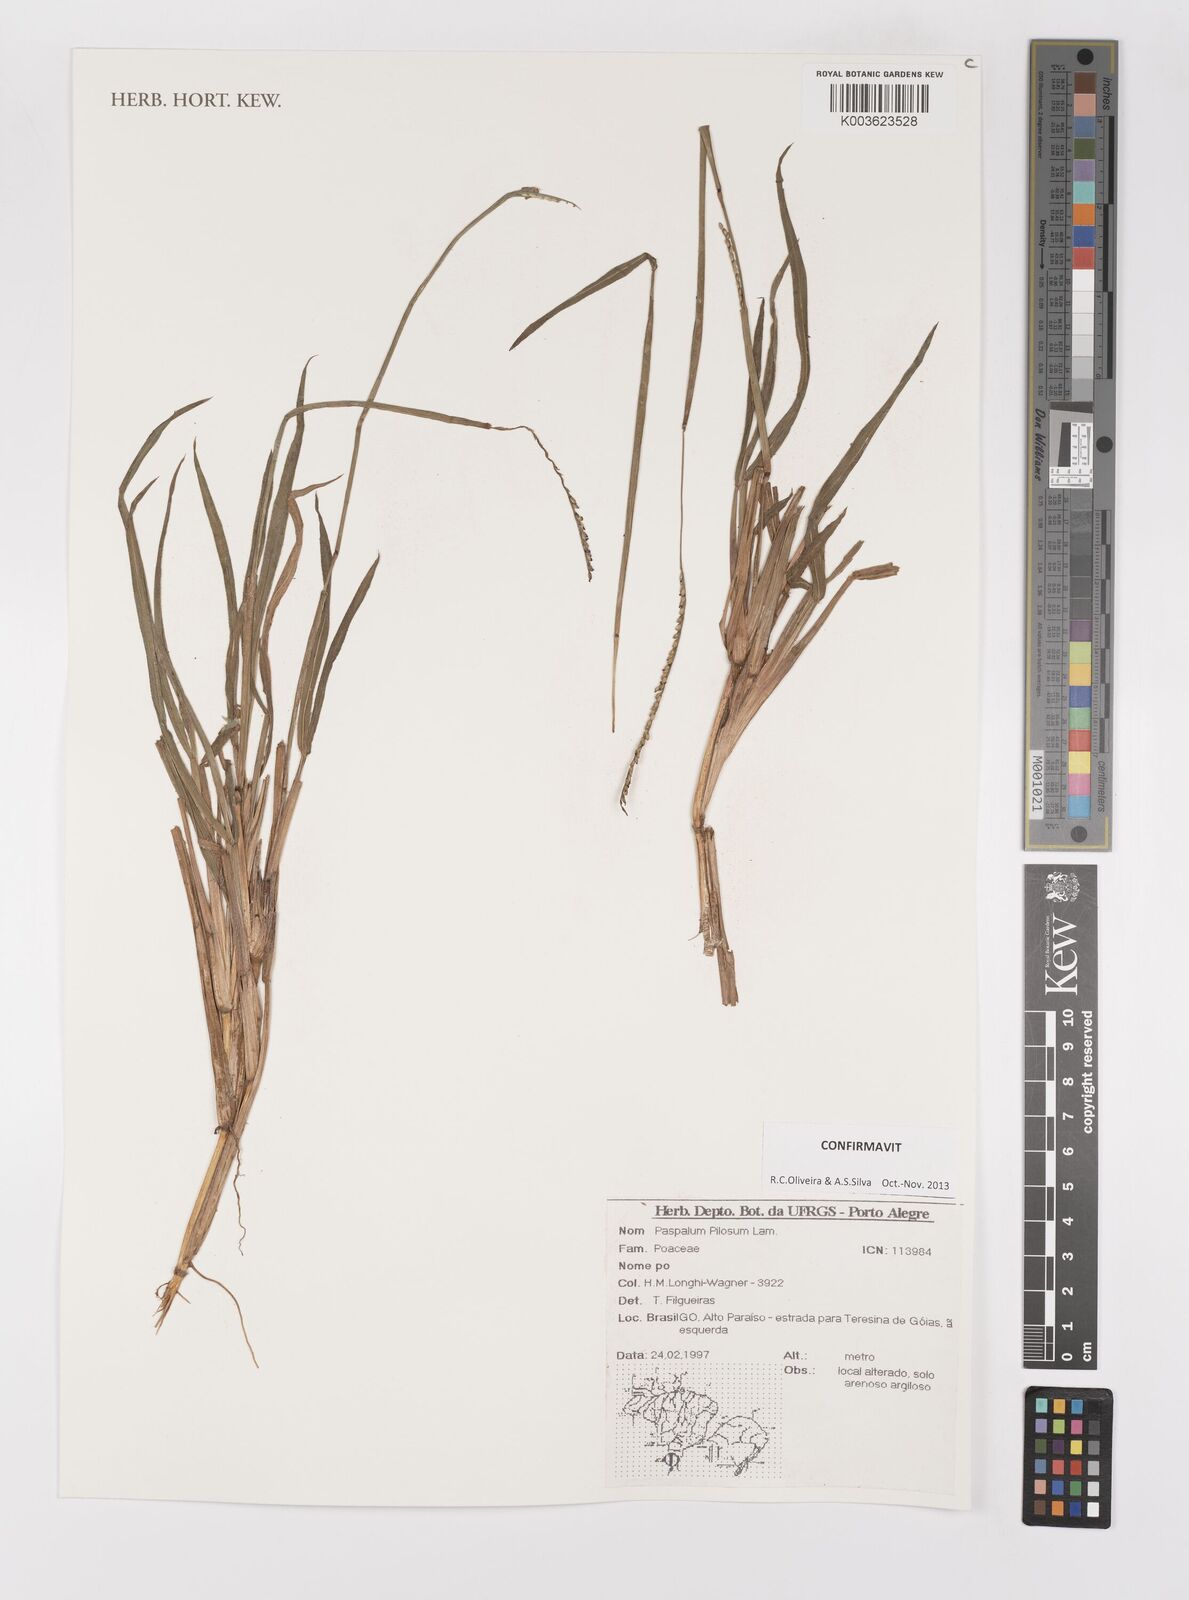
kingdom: Plantae
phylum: Tracheophyta
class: Liliopsida
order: Poales
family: Poaceae
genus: Paspalum
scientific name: Paspalum pilosum
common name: Crowngrass
